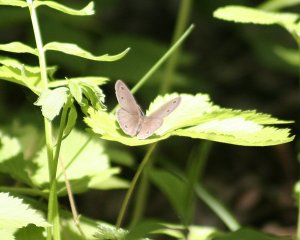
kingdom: Animalia
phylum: Arthropoda
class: Insecta
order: Lepidoptera
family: Nymphalidae
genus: Euptychia
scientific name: Euptychia cymela
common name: Little Wood Satyr
